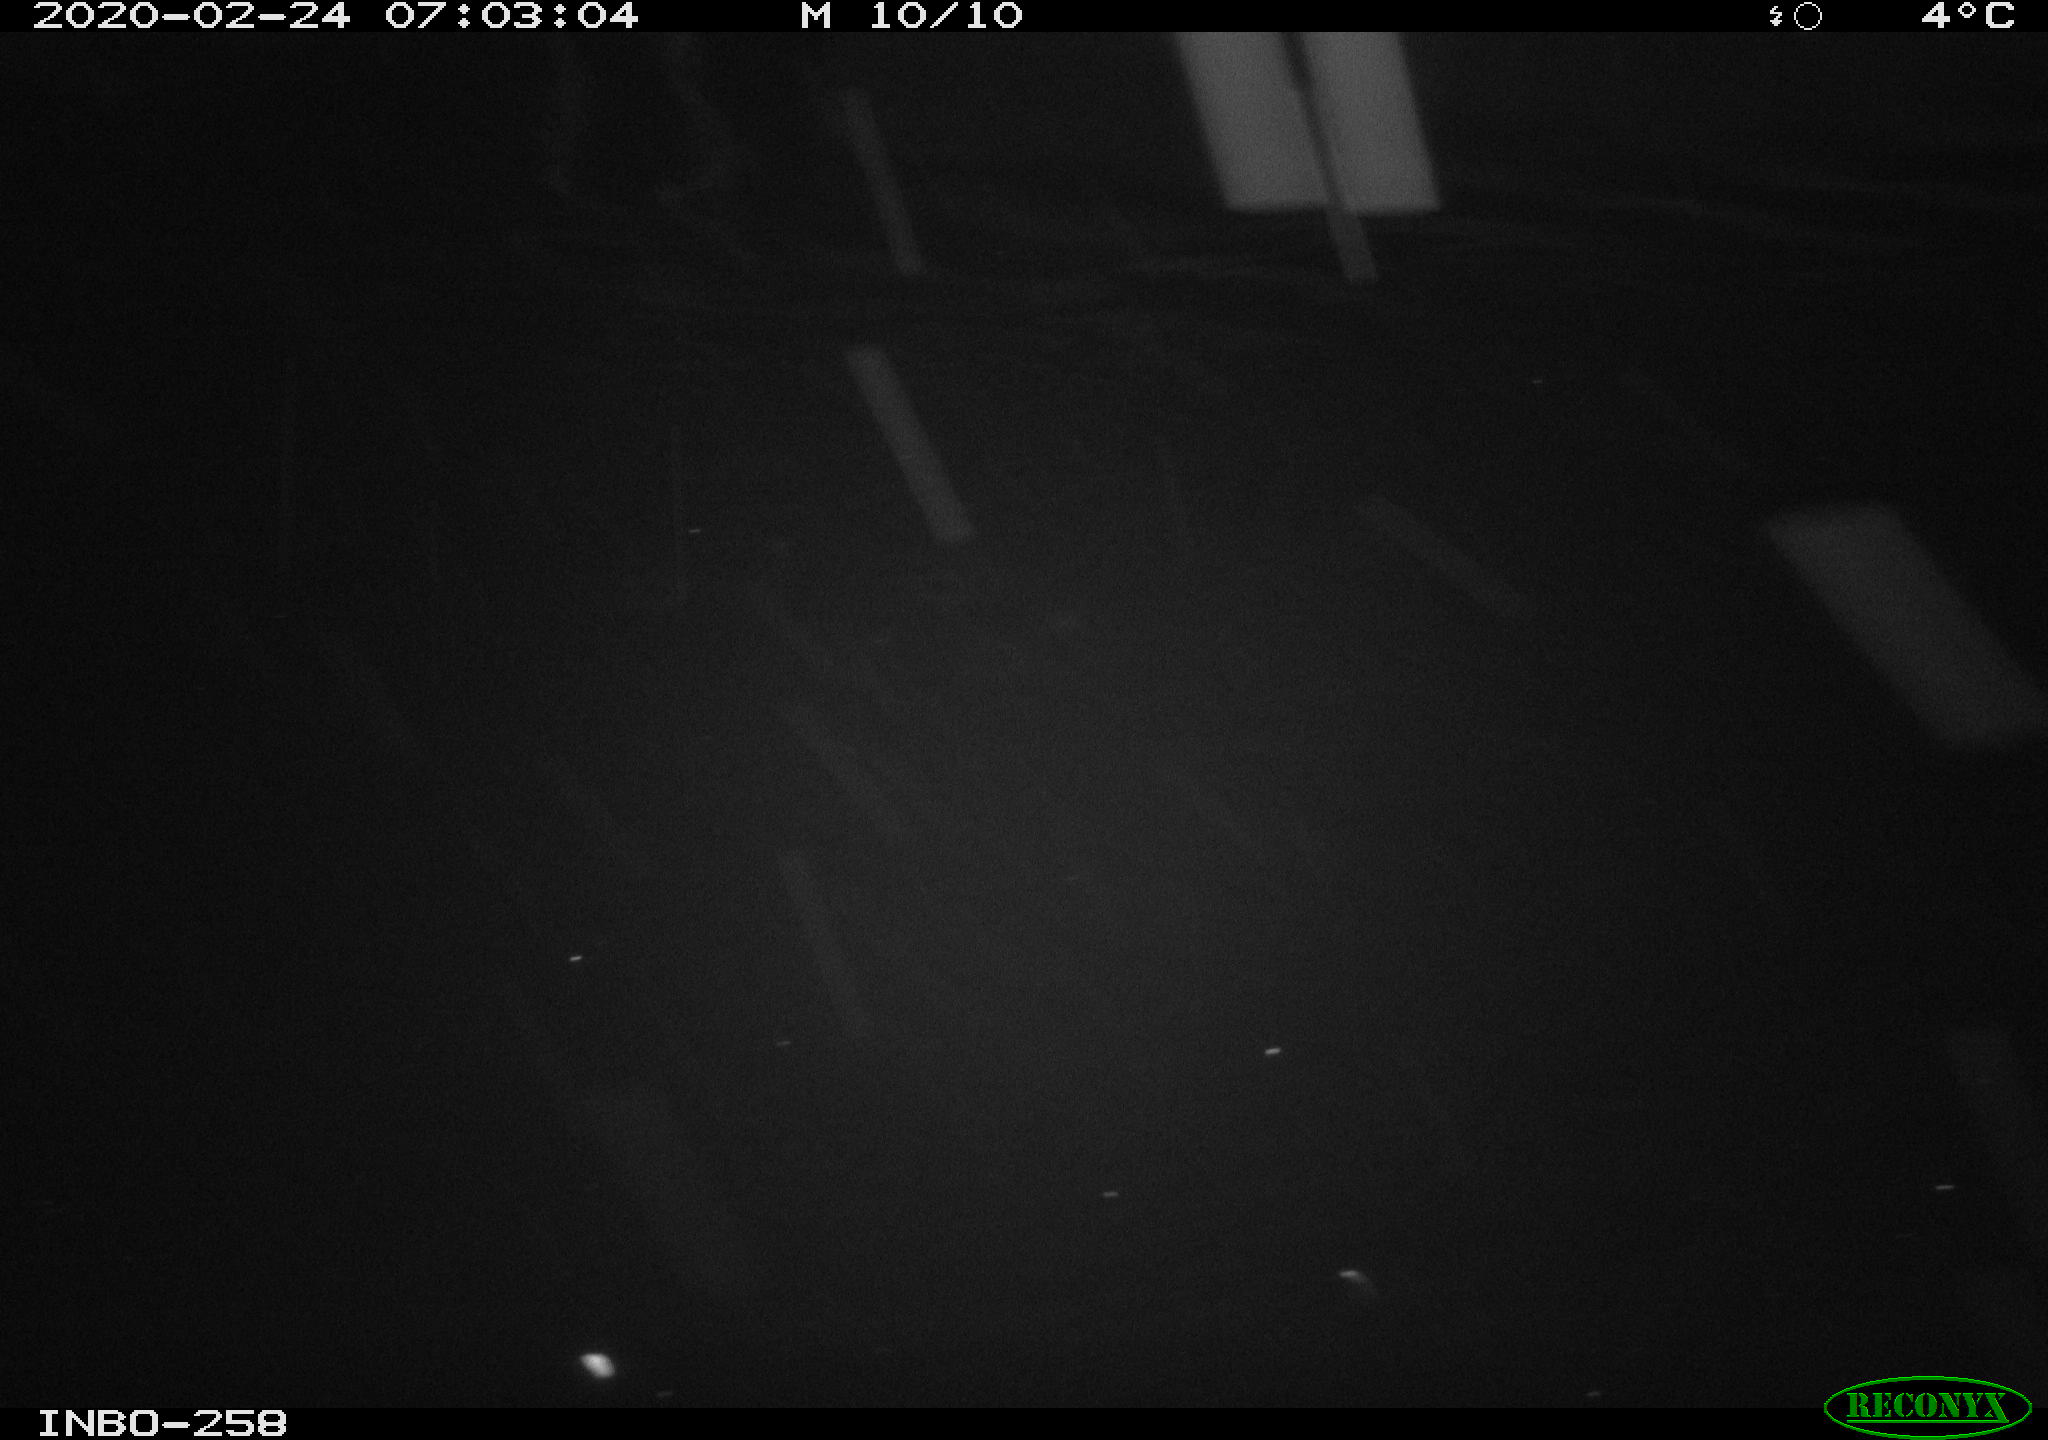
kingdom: Animalia
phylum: Chordata
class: Aves
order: Anseriformes
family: Anatidae
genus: Anas
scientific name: Anas platyrhynchos
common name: Mallard
